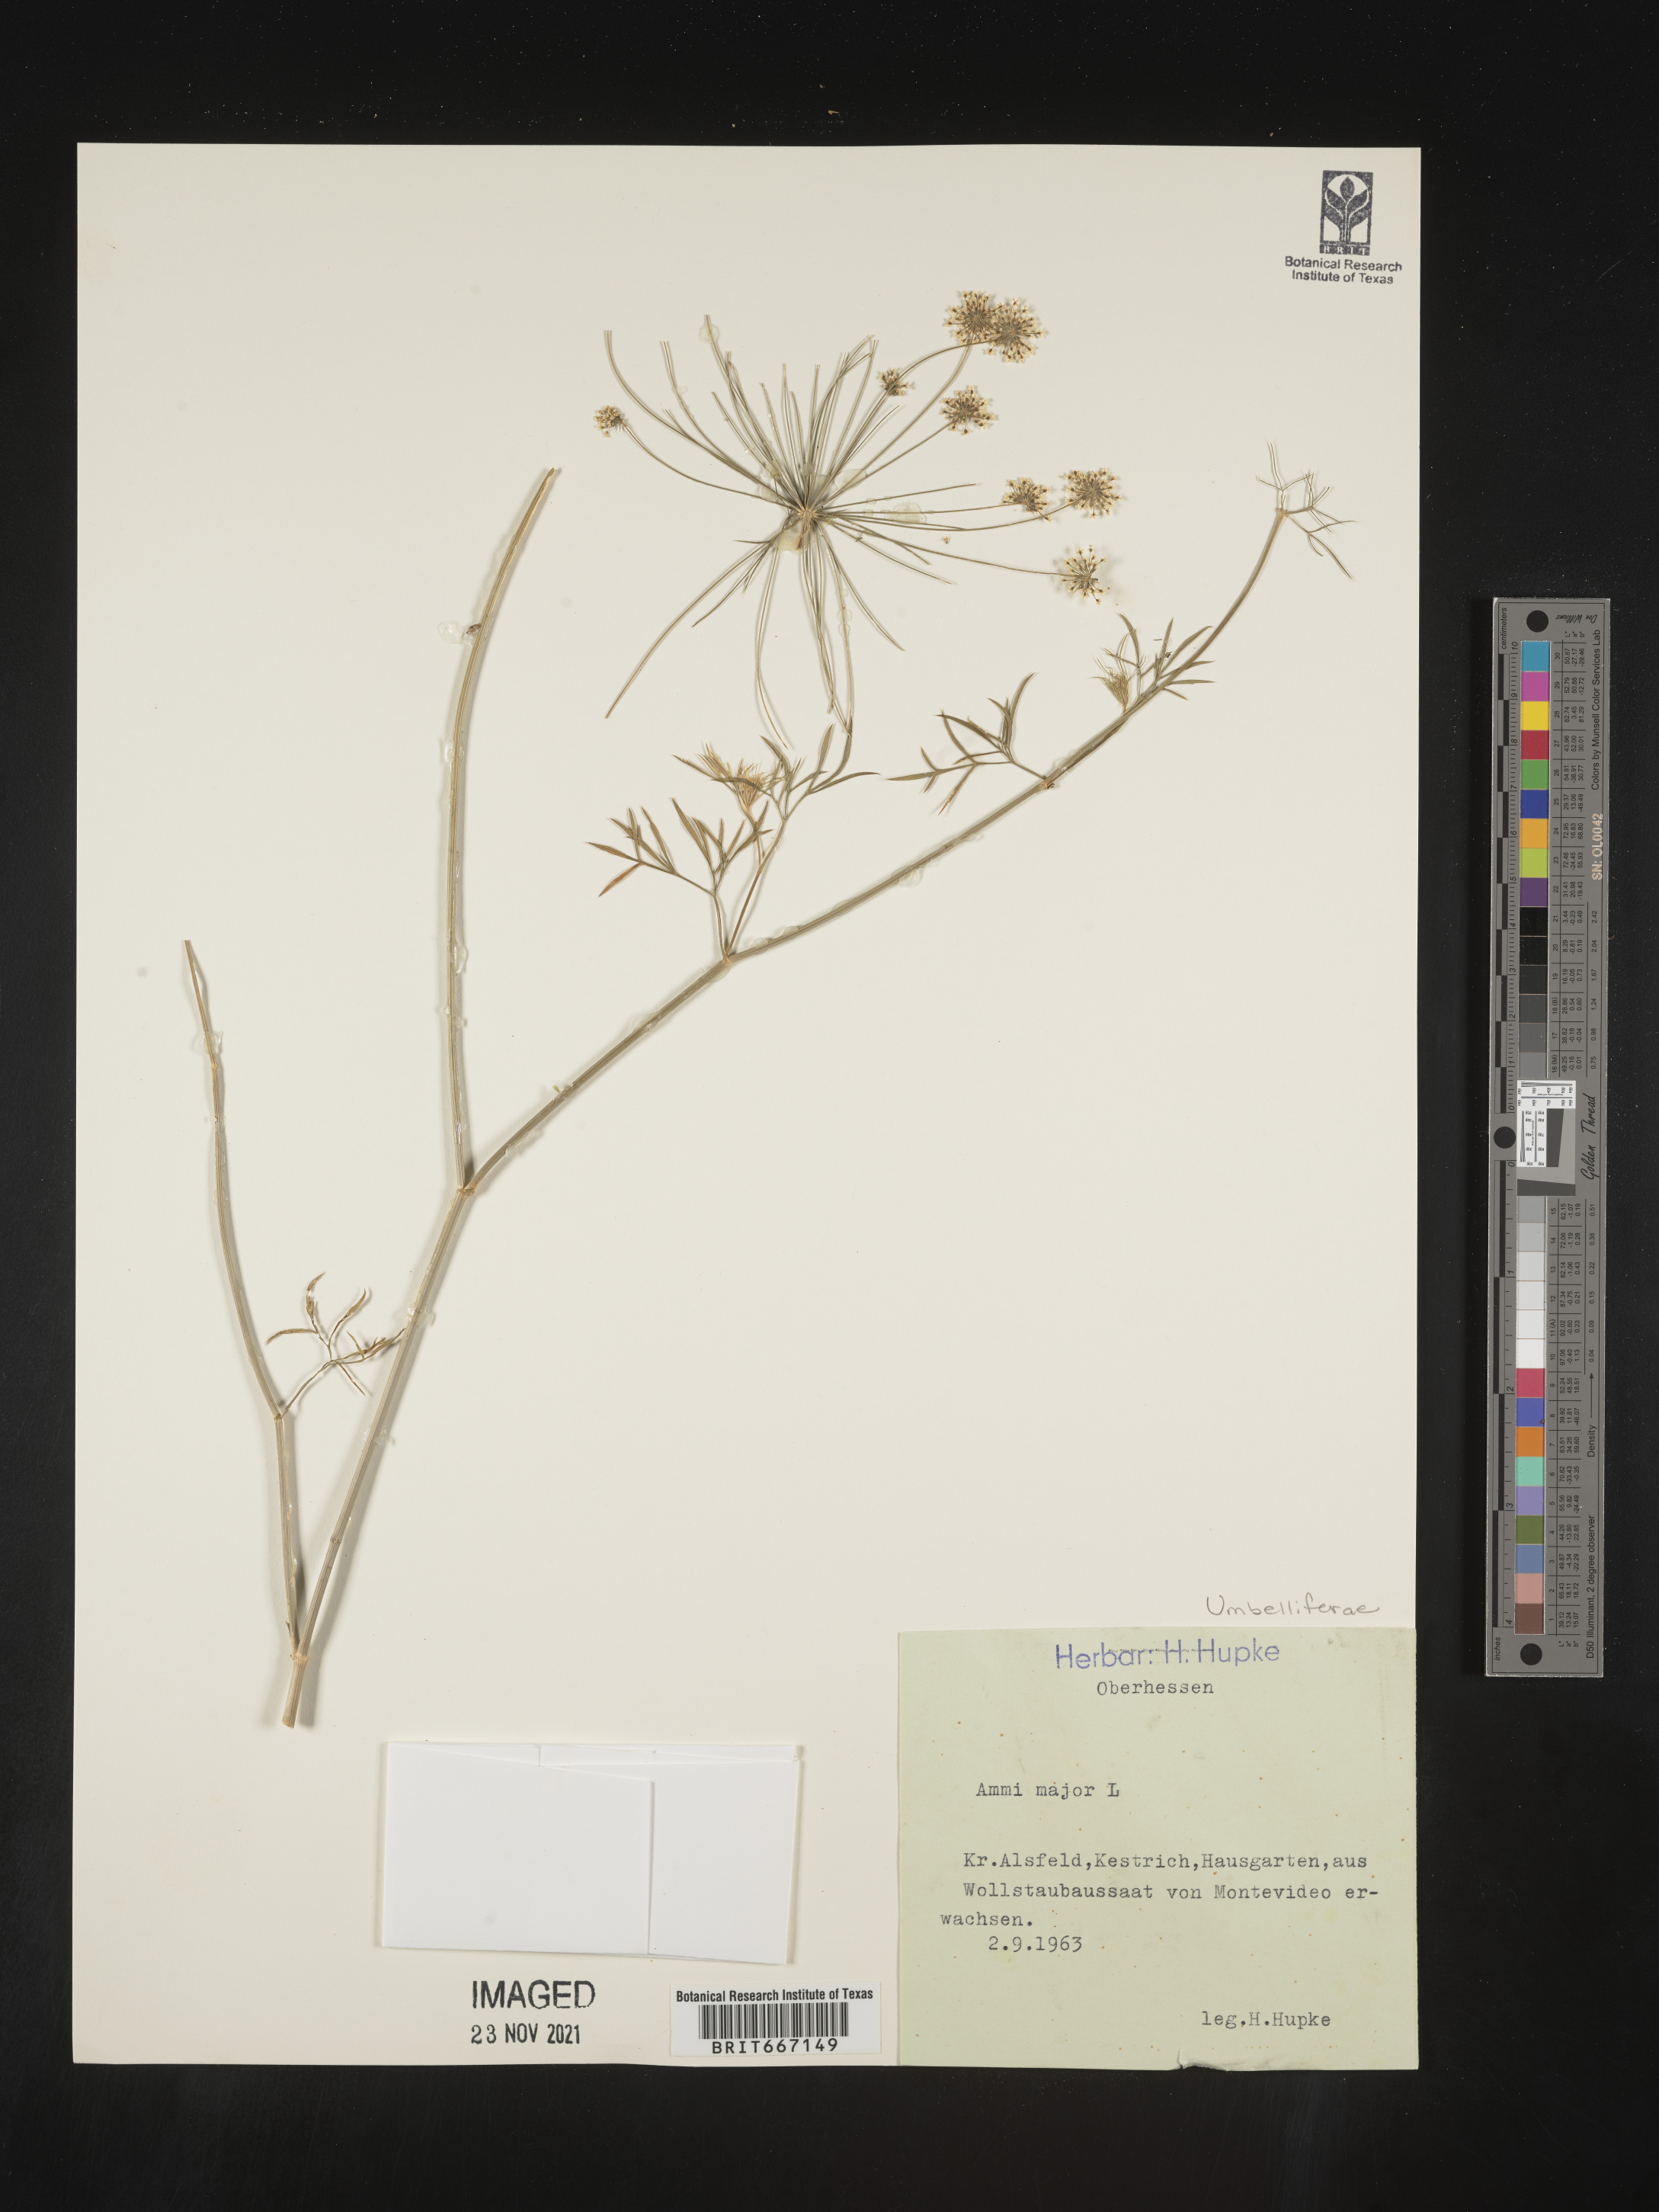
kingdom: Plantae
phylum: Tracheophyta
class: Magnoliopsida
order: Apiales
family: Apiaceae
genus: Ammi
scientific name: Ammi
